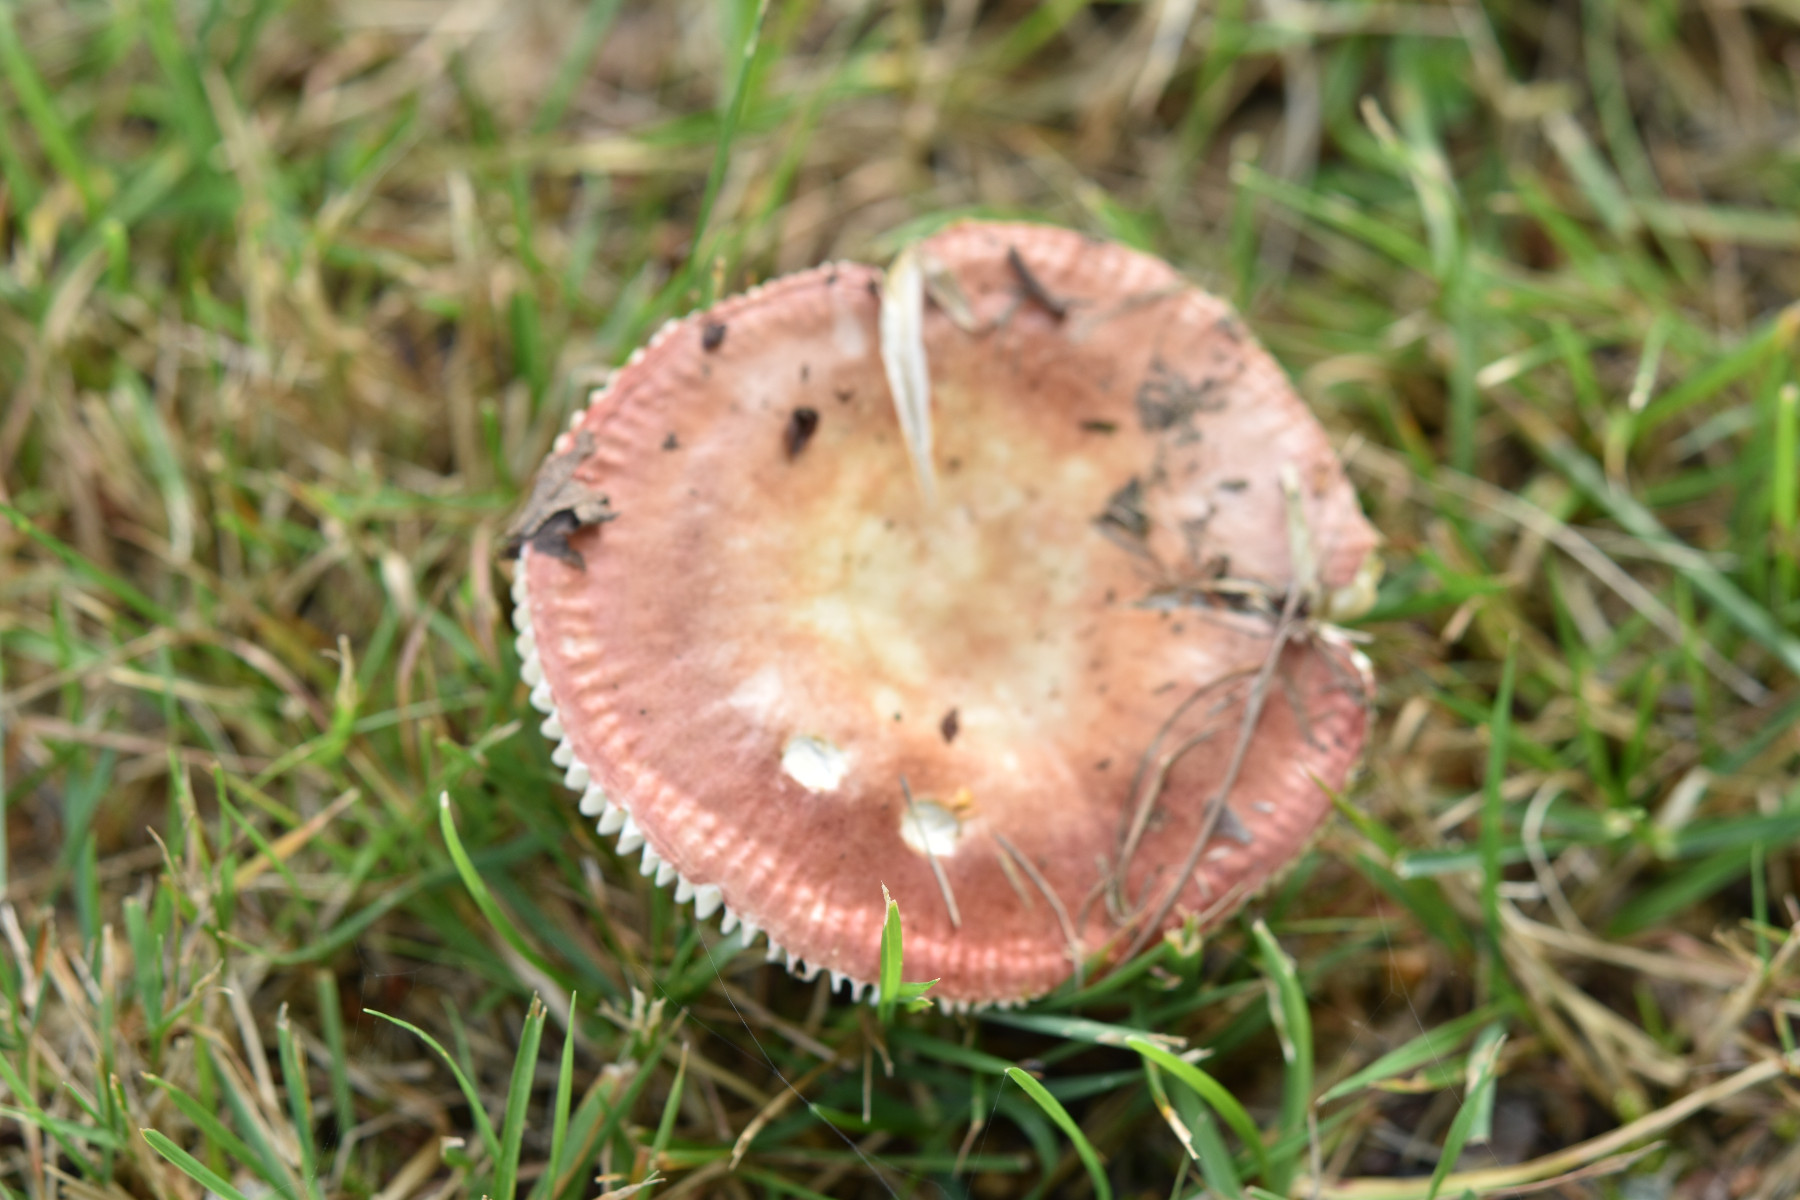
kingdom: Fungi
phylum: Basidiomycota
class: Agaricomycetes
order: Russulales
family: Russulaceae
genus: Russula
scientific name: Russula velenovskyi
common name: orangerød skørhat
